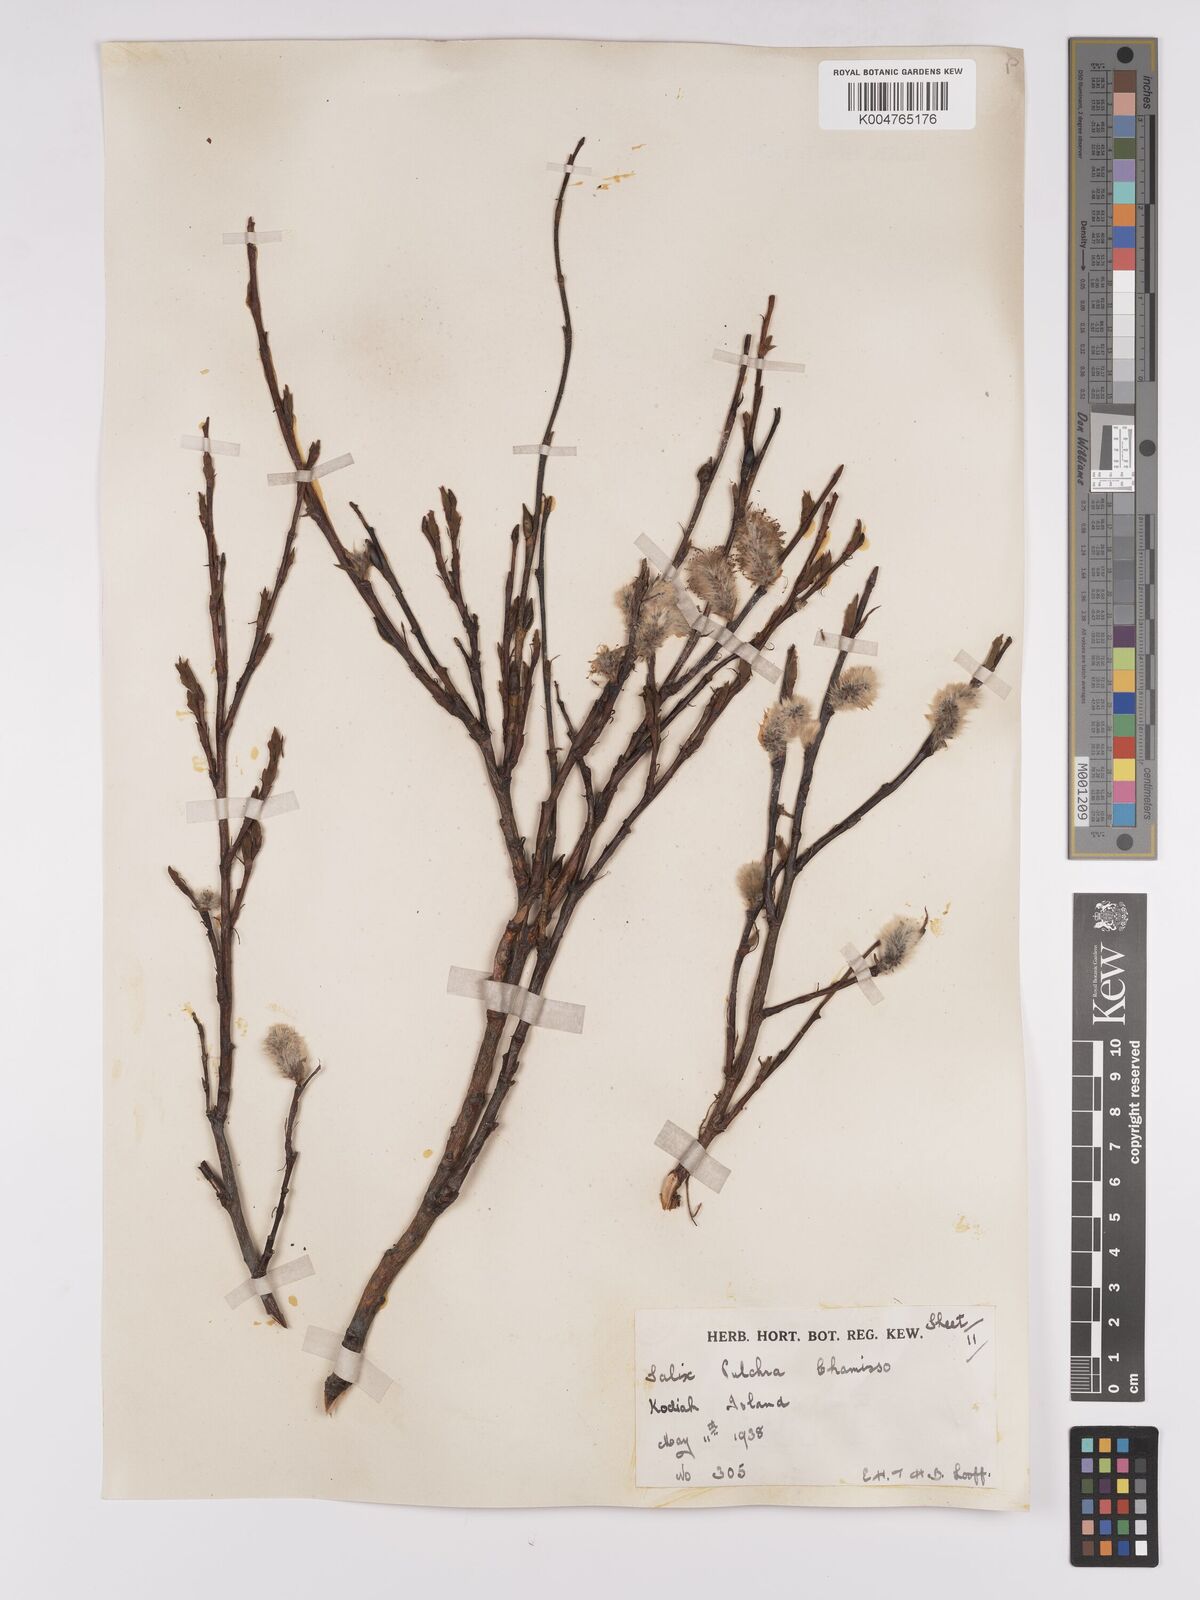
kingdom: Plantae
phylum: Tracheophyta
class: Magnoliopsida
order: Malpighiales
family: Salicaceae
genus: Salix
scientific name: Salix
